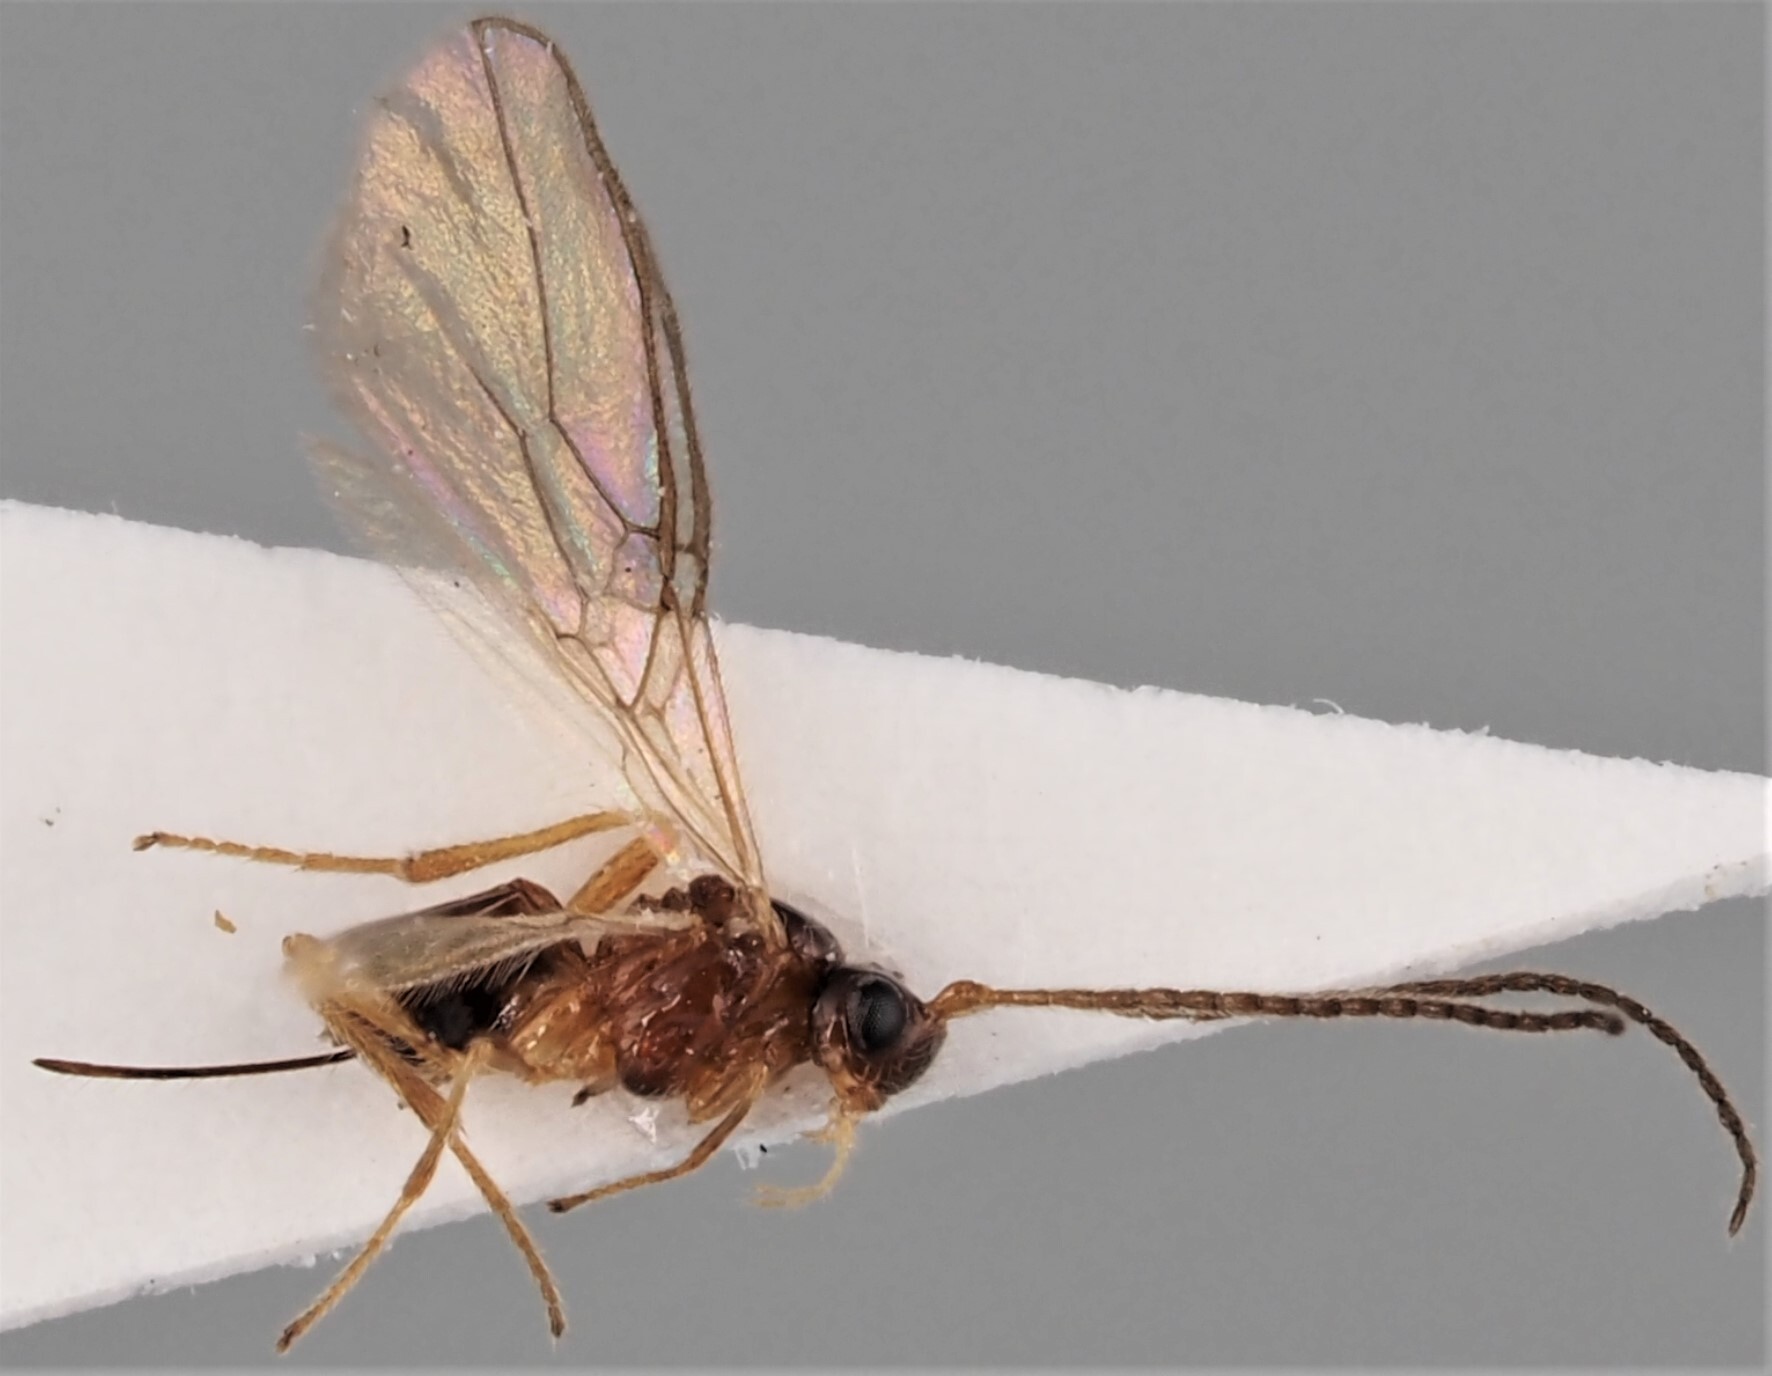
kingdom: Animalia
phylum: Arthropoda
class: Insecta
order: Hymenoptera
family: Braconidae
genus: Dinotrema
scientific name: Dinotrema divisum
